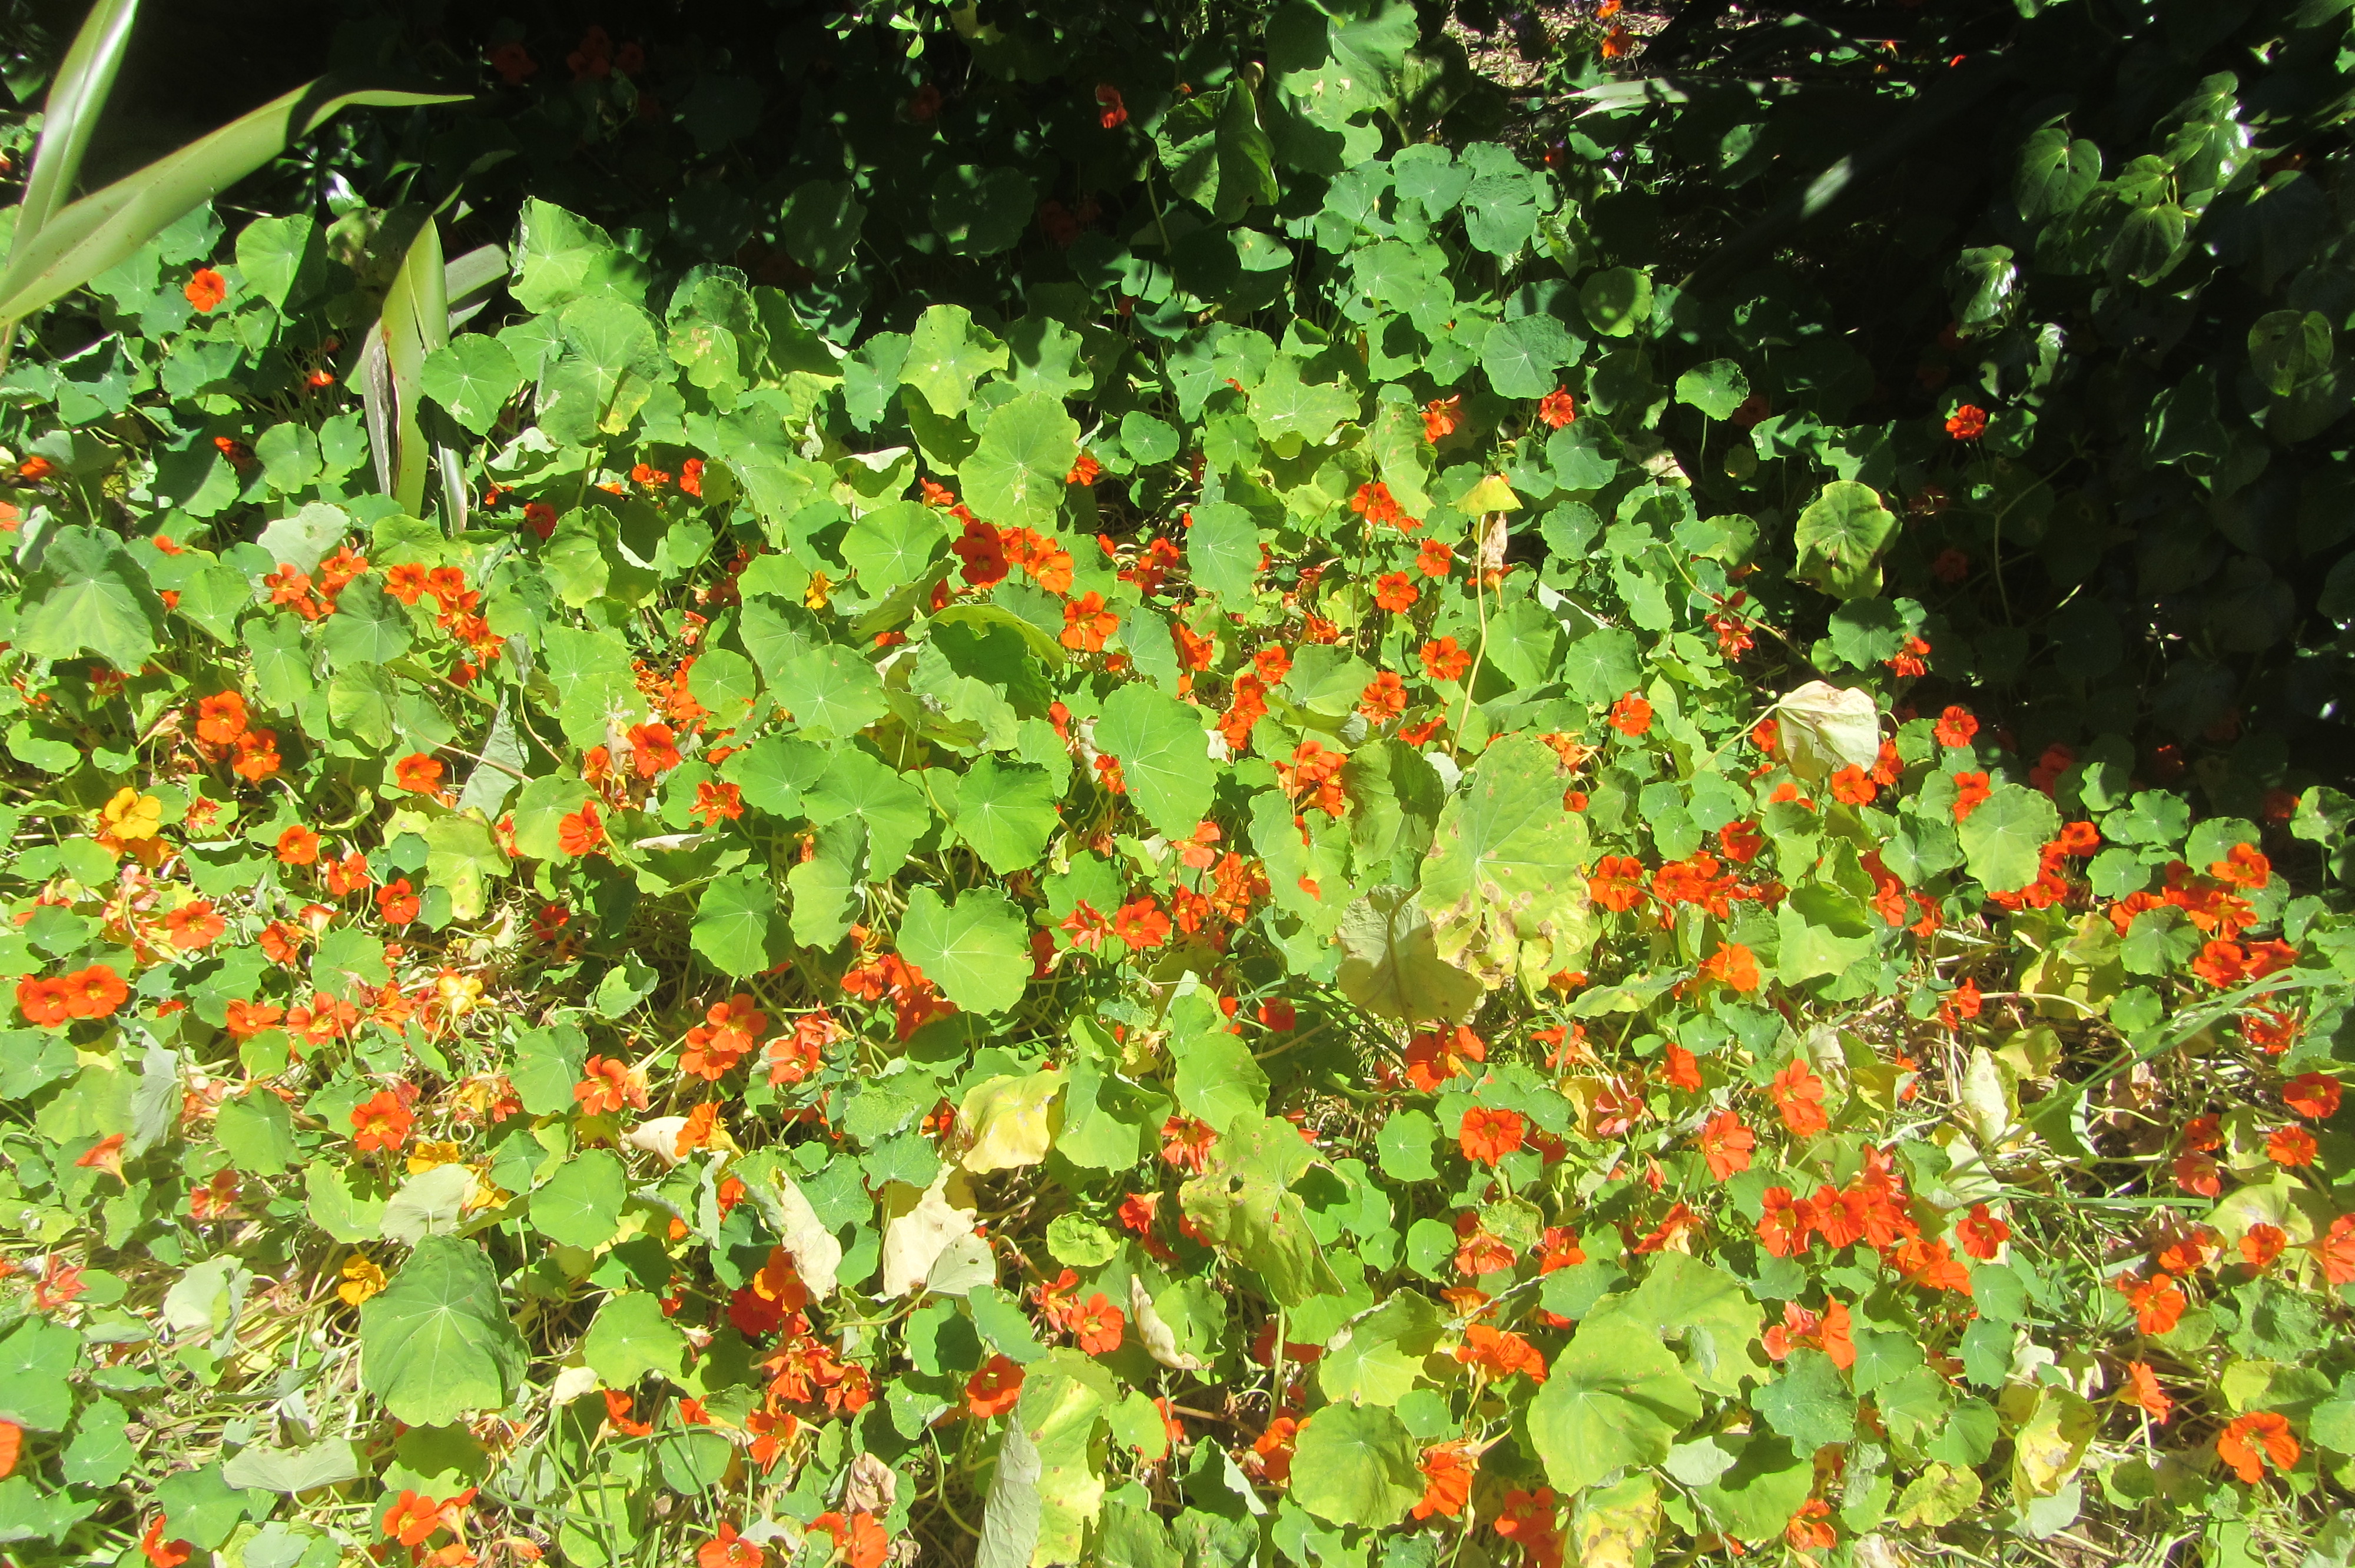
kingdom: Plantae
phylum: Tracheophyta
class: Magnoliopsida
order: Brassicales
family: Tropaeolaceae
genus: Tropaeolum
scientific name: Tropaeolum majus
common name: Nasturtium
